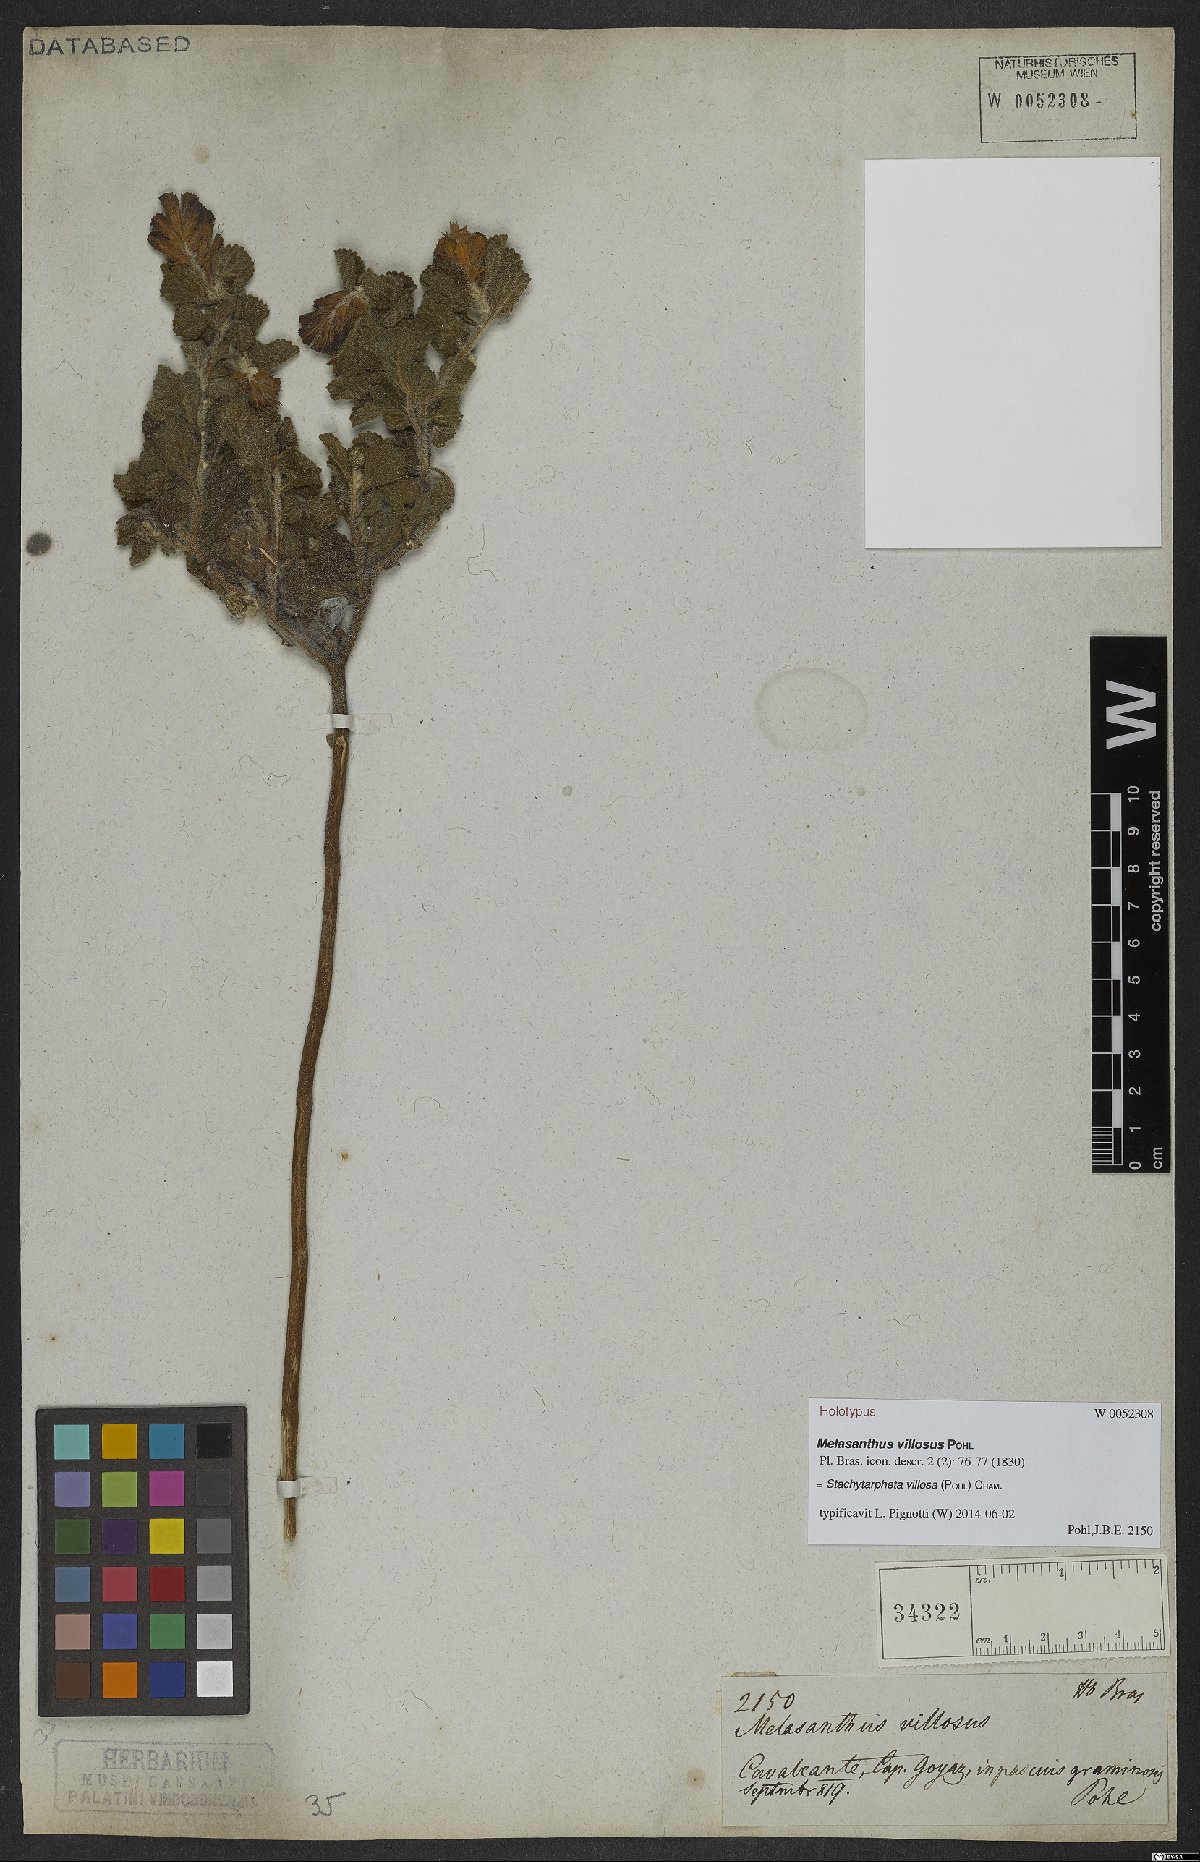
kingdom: Plantae
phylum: Tracheophyta
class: Magnoliopsida
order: Lamiales
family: Verbenaceae
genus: Stachytarpheta
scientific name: Stachytarpheta villosa
